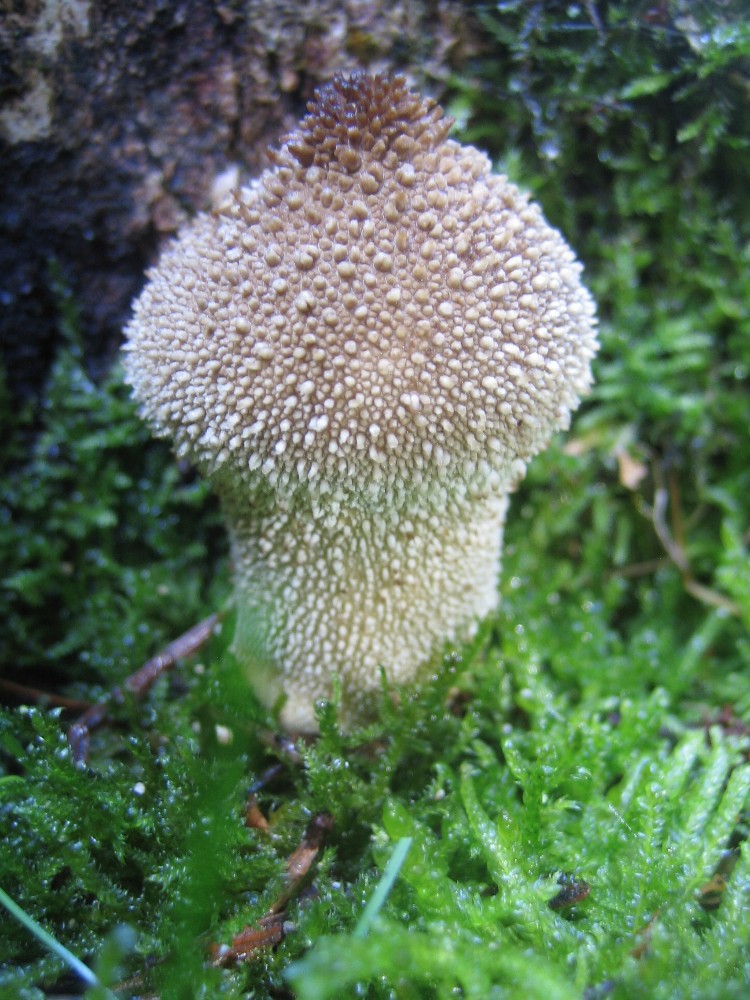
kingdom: Fungi
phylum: Basidiomycota
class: Agaricomycetes
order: Agaricales
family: Lycoperdaceae
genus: Lycoperdon
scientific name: Lycoperdon perlatum
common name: krystal-støvbold
